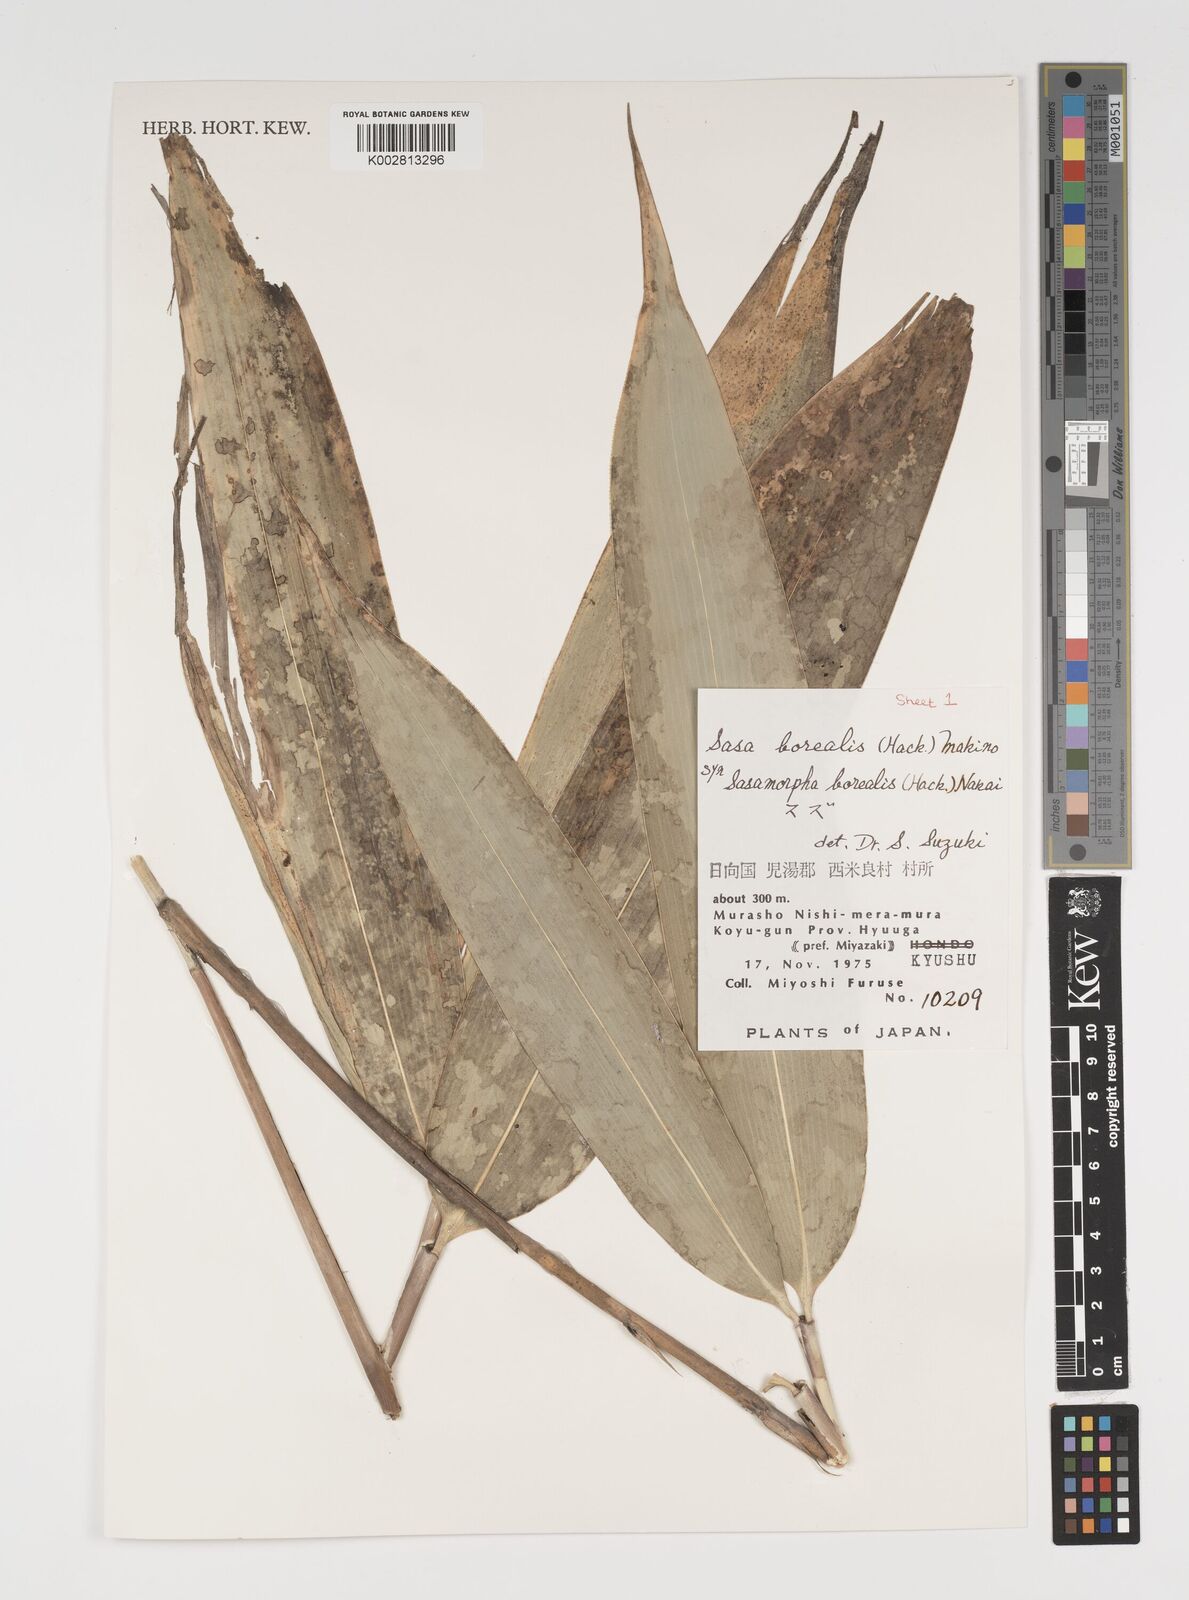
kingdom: Plantae
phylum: Tracheophyta
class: Liliopsida
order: Poales
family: Poaceae
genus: Sasamorpha
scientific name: Sasamorpha borealis
